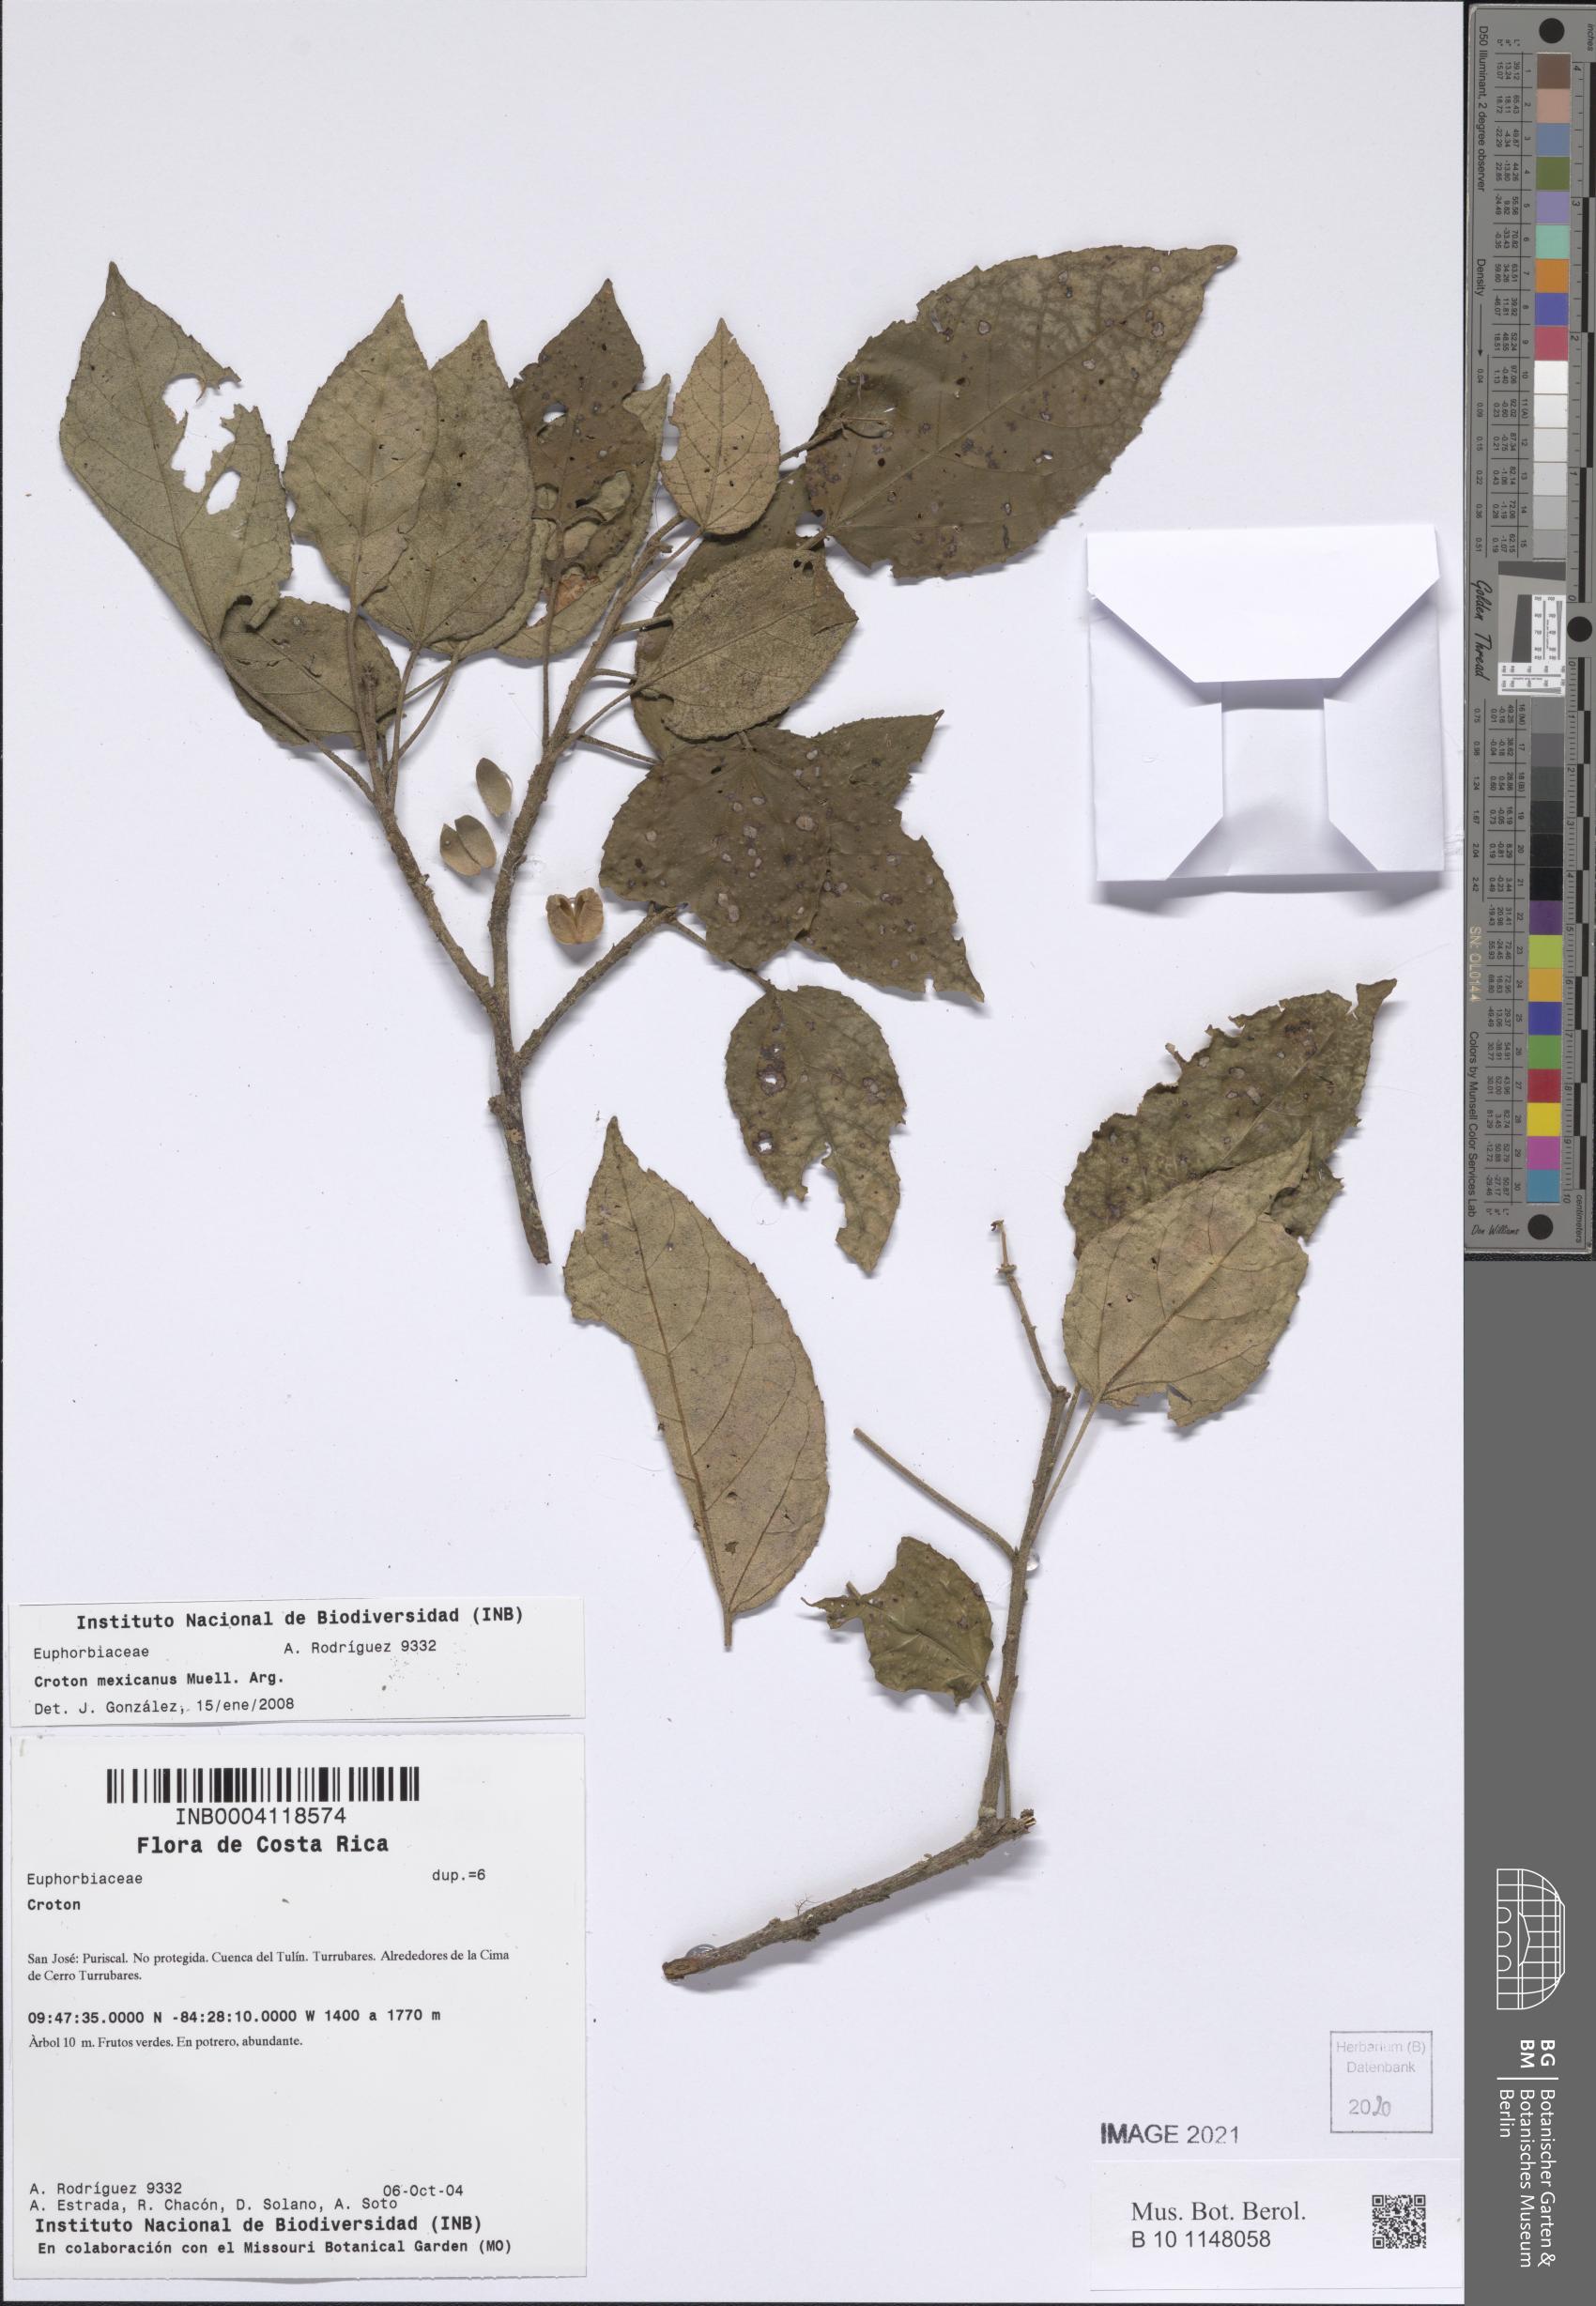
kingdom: Plantae
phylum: Tracheophyta
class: Magnoliopsida
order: Malpighiales
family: Euphorbiaceae
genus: Croton
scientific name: Croton mexicanus
